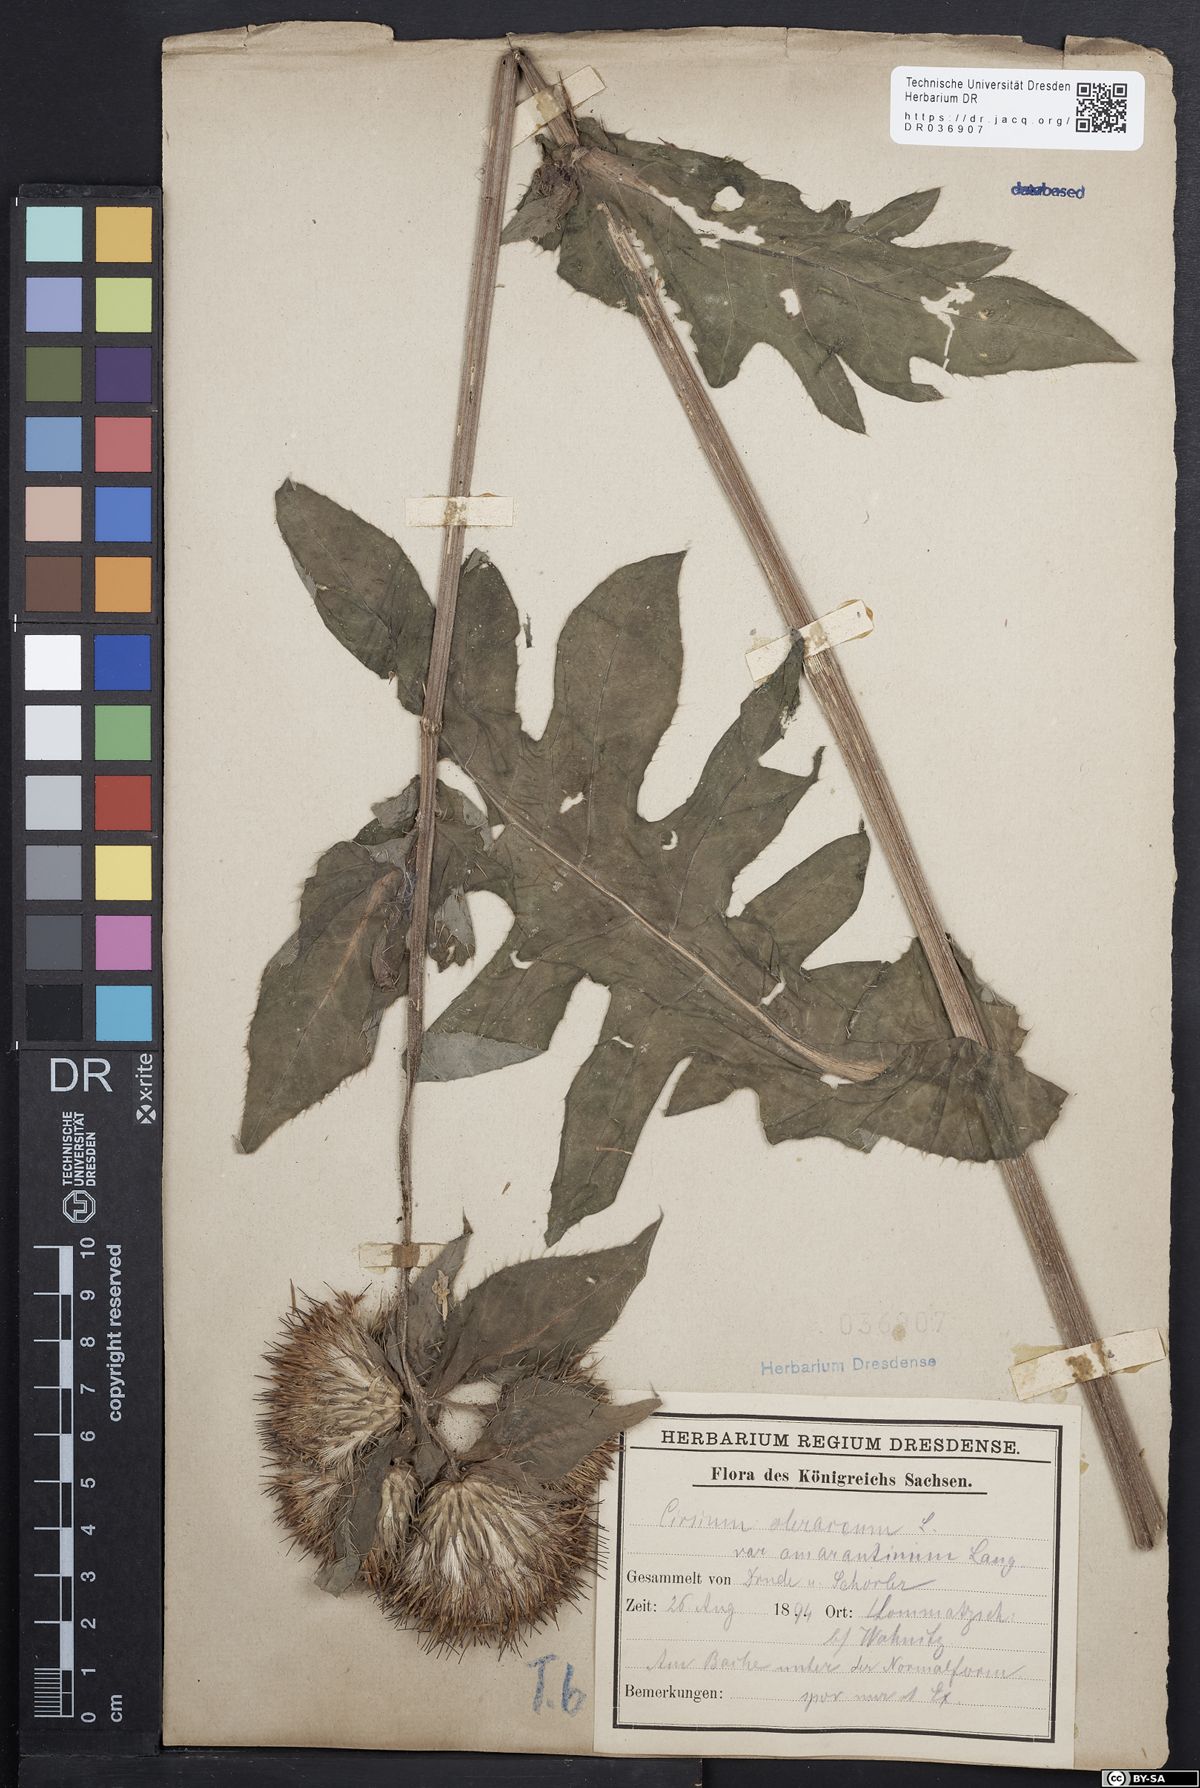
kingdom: Plantae
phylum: Tracheophyta
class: Magnoliopsida
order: Asterales
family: Asteraceae
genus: Cirsium
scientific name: Cirsium oleraceum
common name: Cabbage thistle
